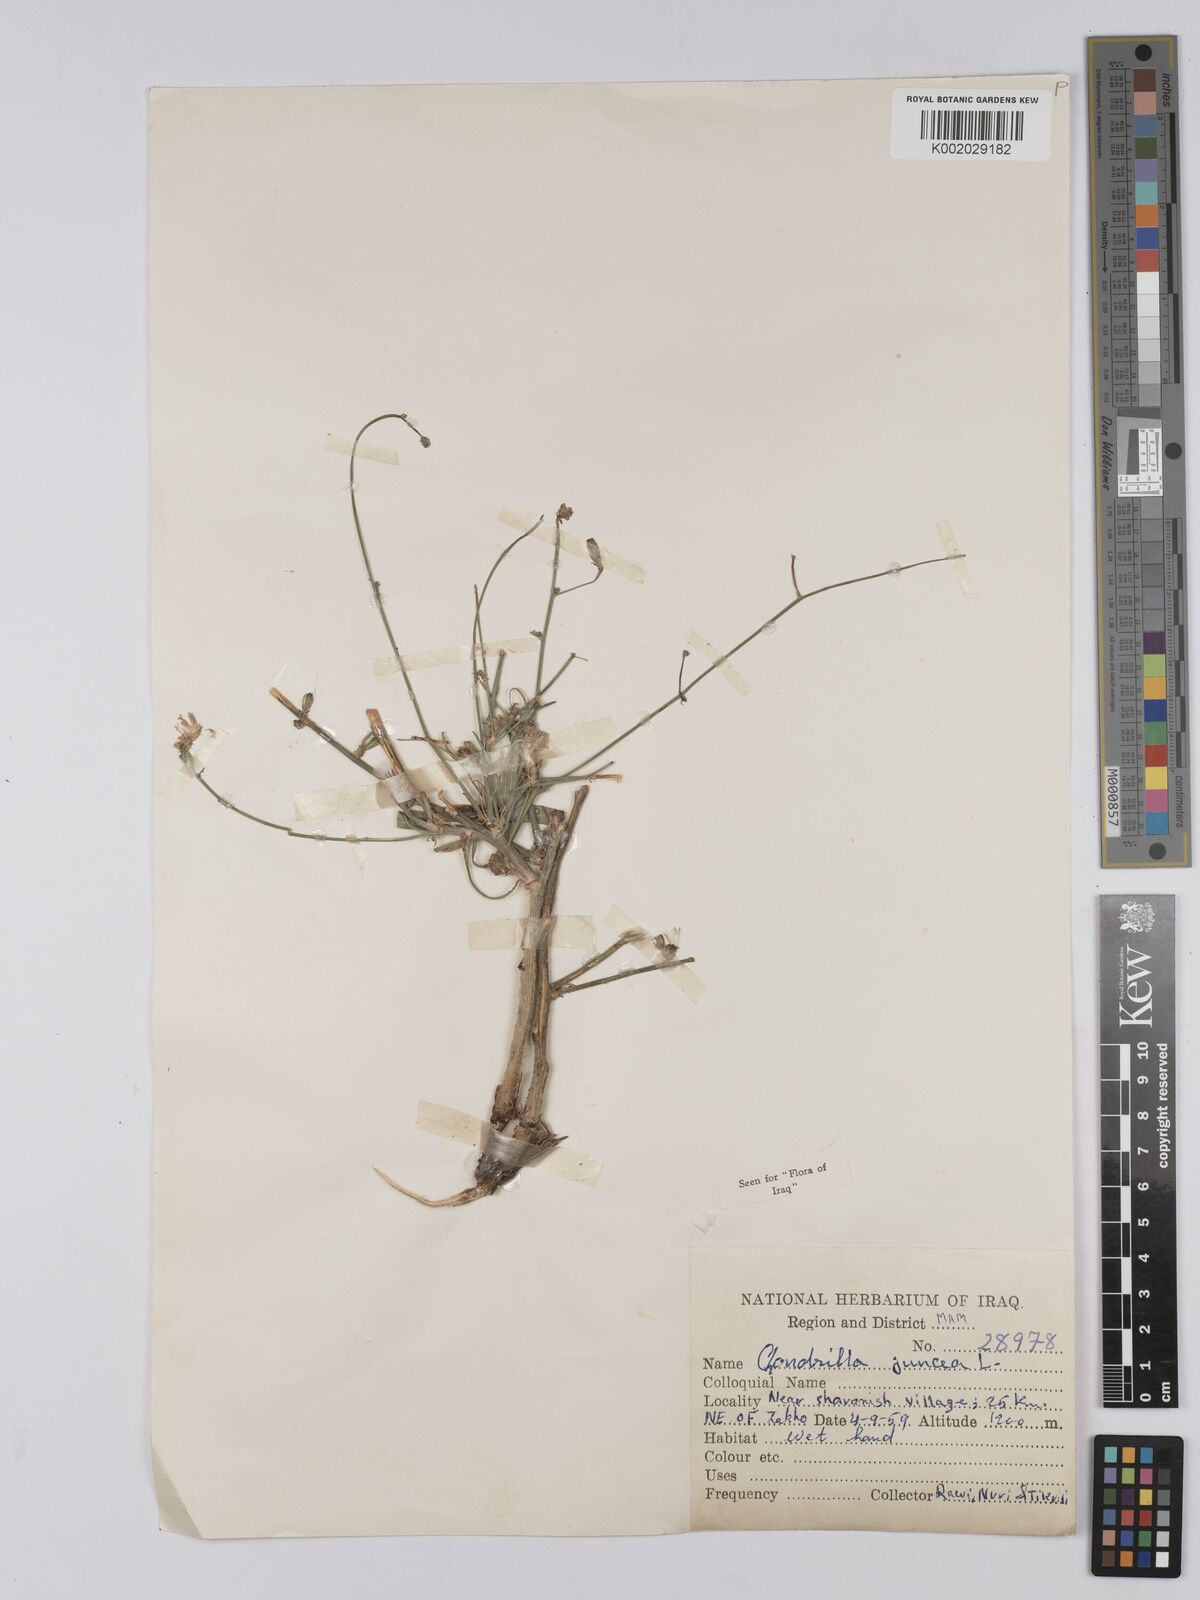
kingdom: Plantae
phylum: Tracheophyta
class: Magnoliopsida
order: Asterales
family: Asteraceae
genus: Chondrilla
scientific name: Chondrilla juncea
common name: Skeleton weed
